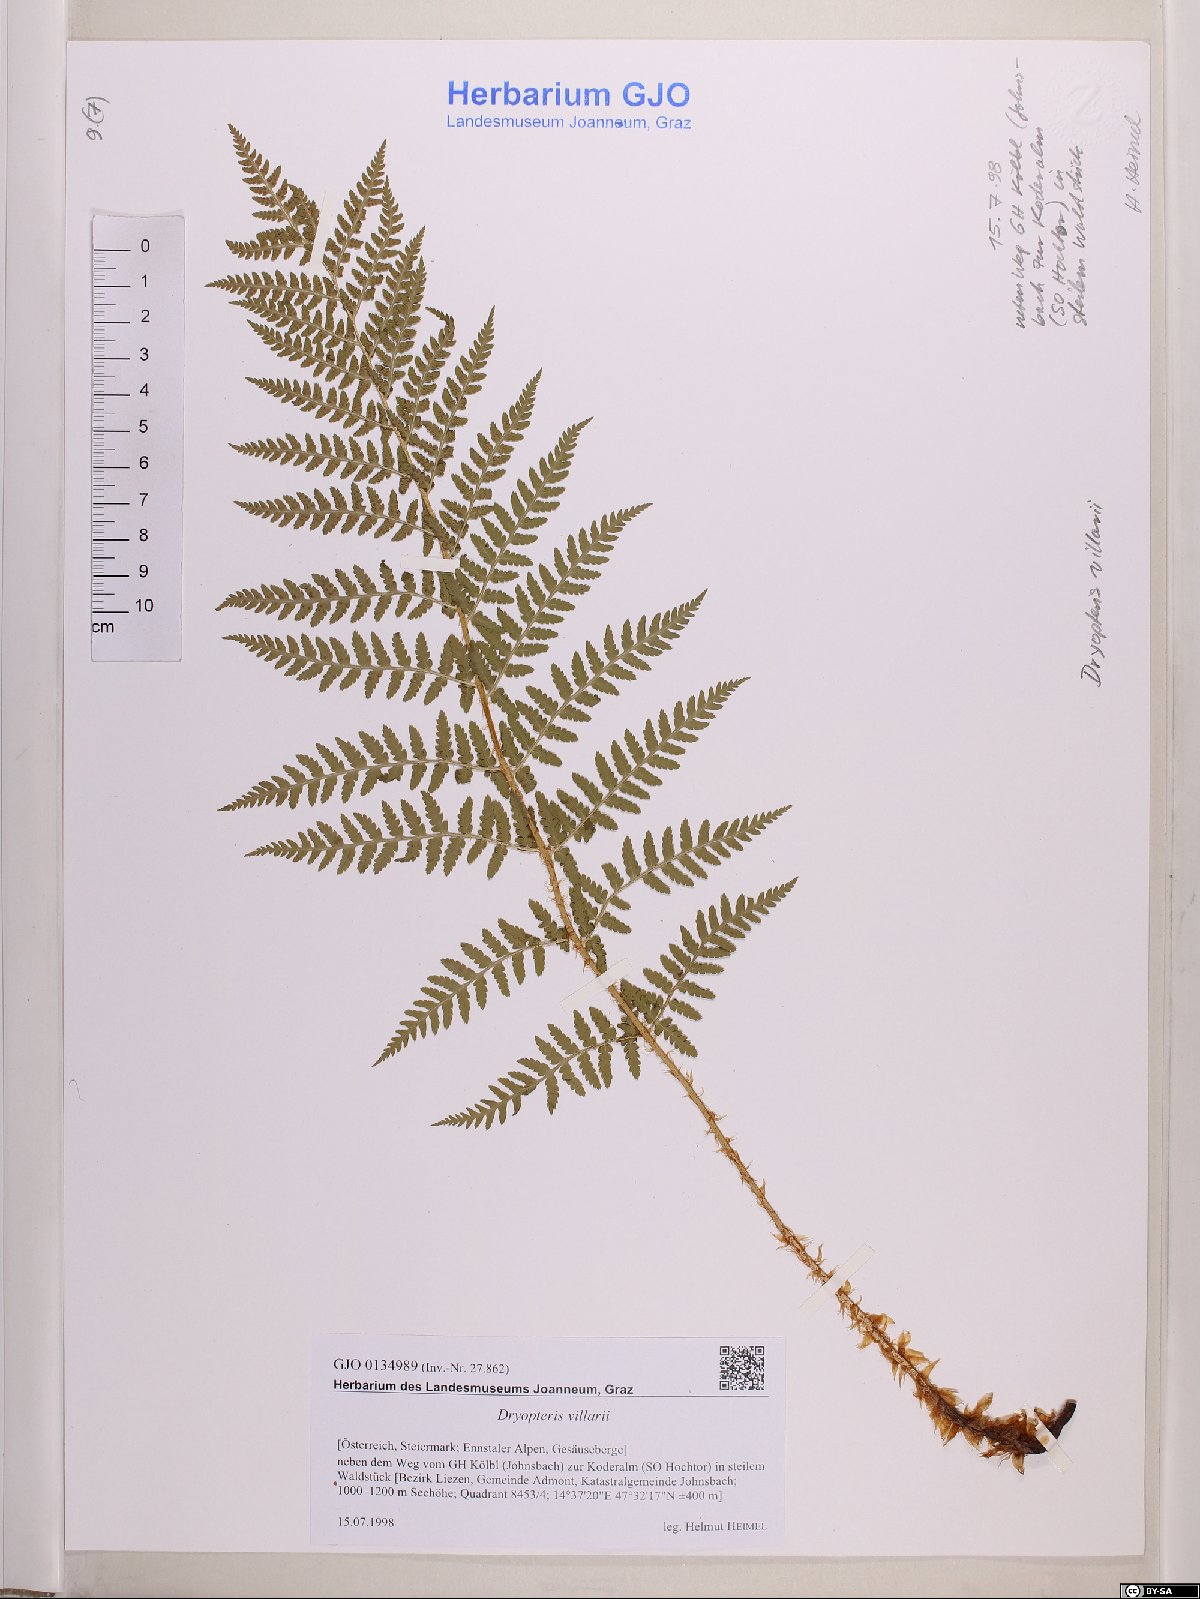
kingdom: Plantae
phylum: Tracheophyta
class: Polypodiopsida
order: Polypodiales
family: Dryopteridaceae
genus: Dryopteris
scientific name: Dryopteris villarii
